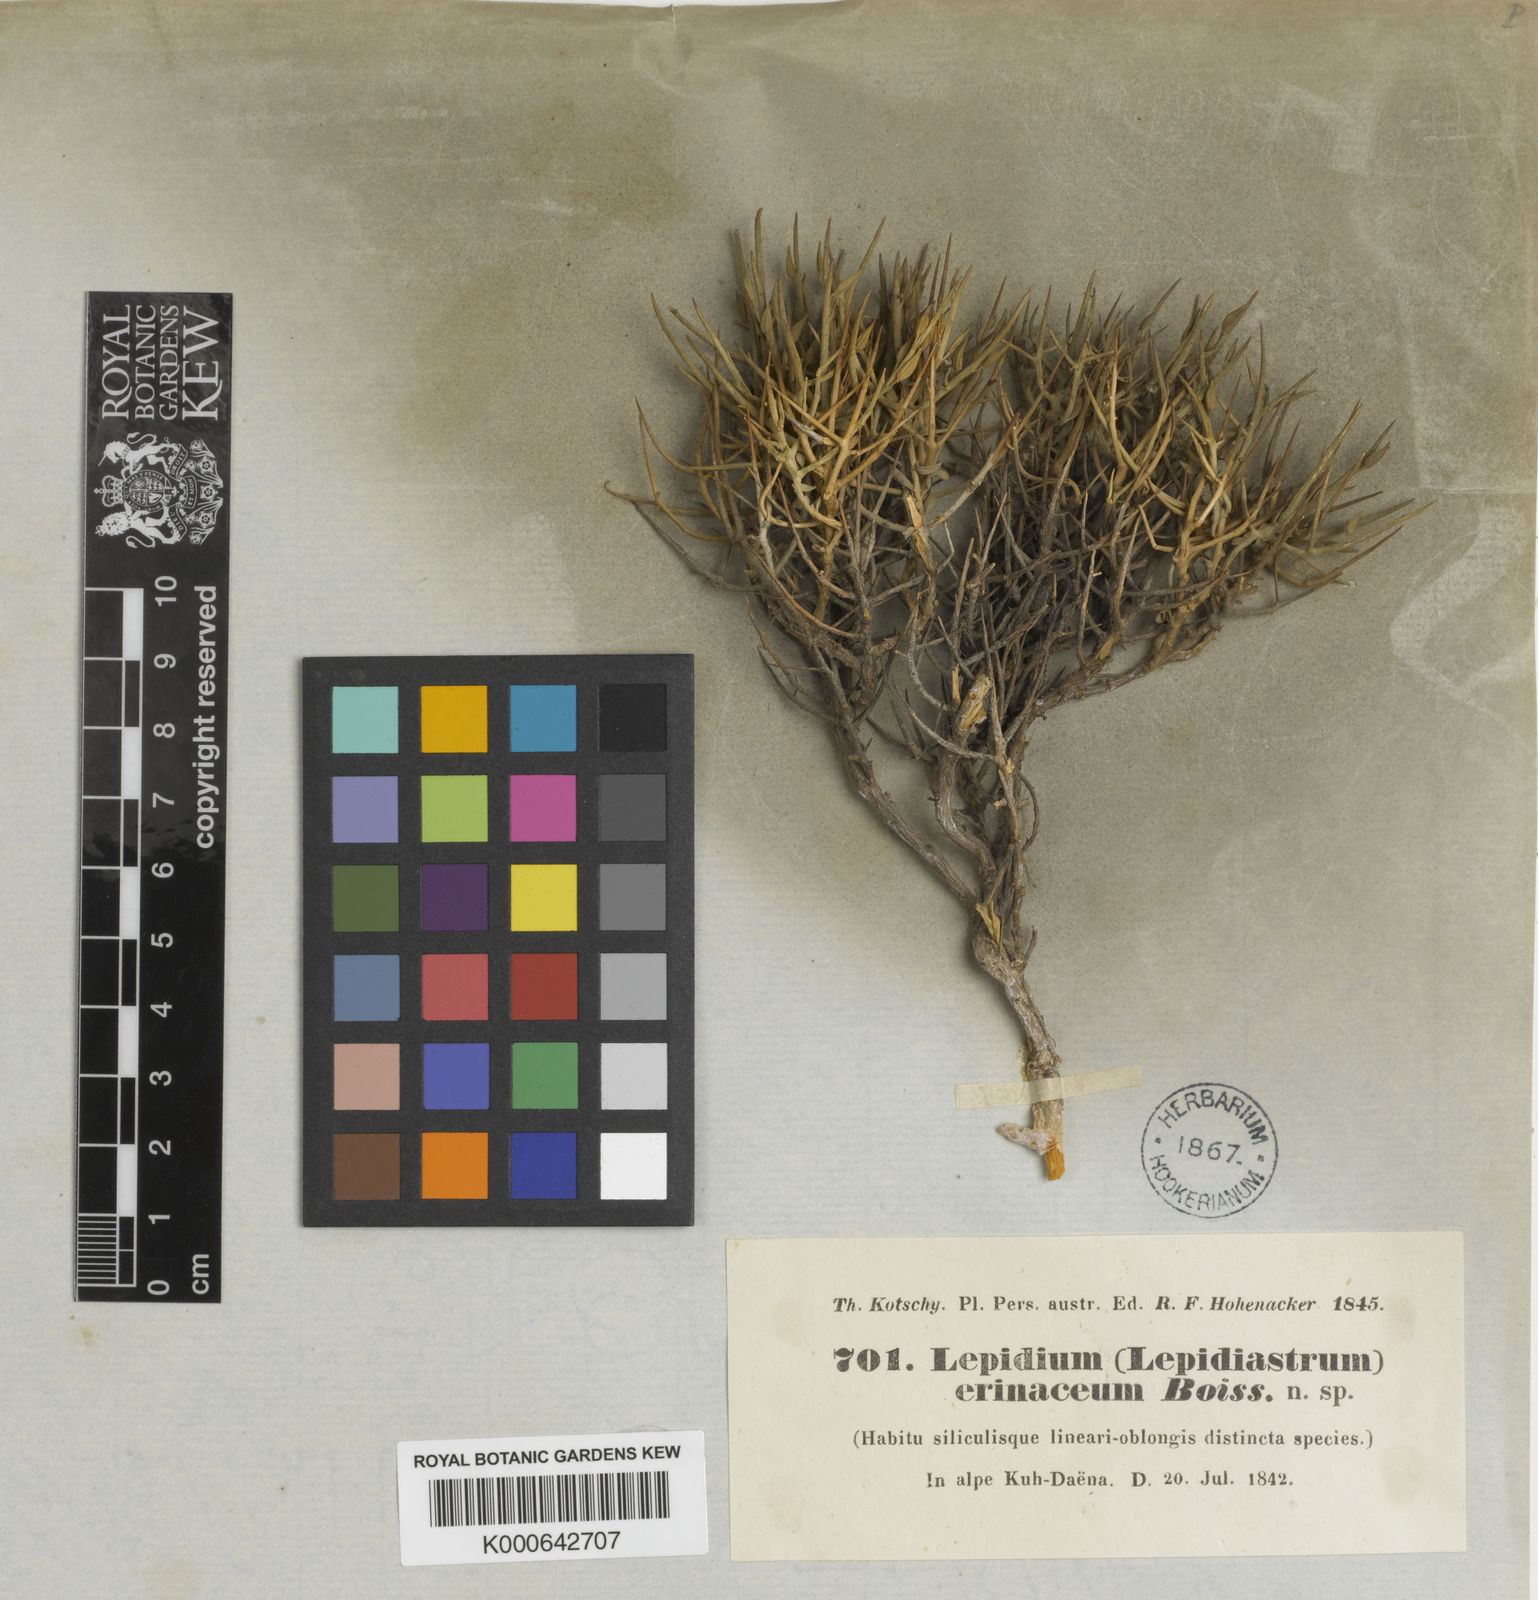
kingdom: Plantae
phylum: Tracheophyta
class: Magnoliopsida
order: Brassicales
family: Brassicaceae
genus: Aethionema
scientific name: Aethionema
